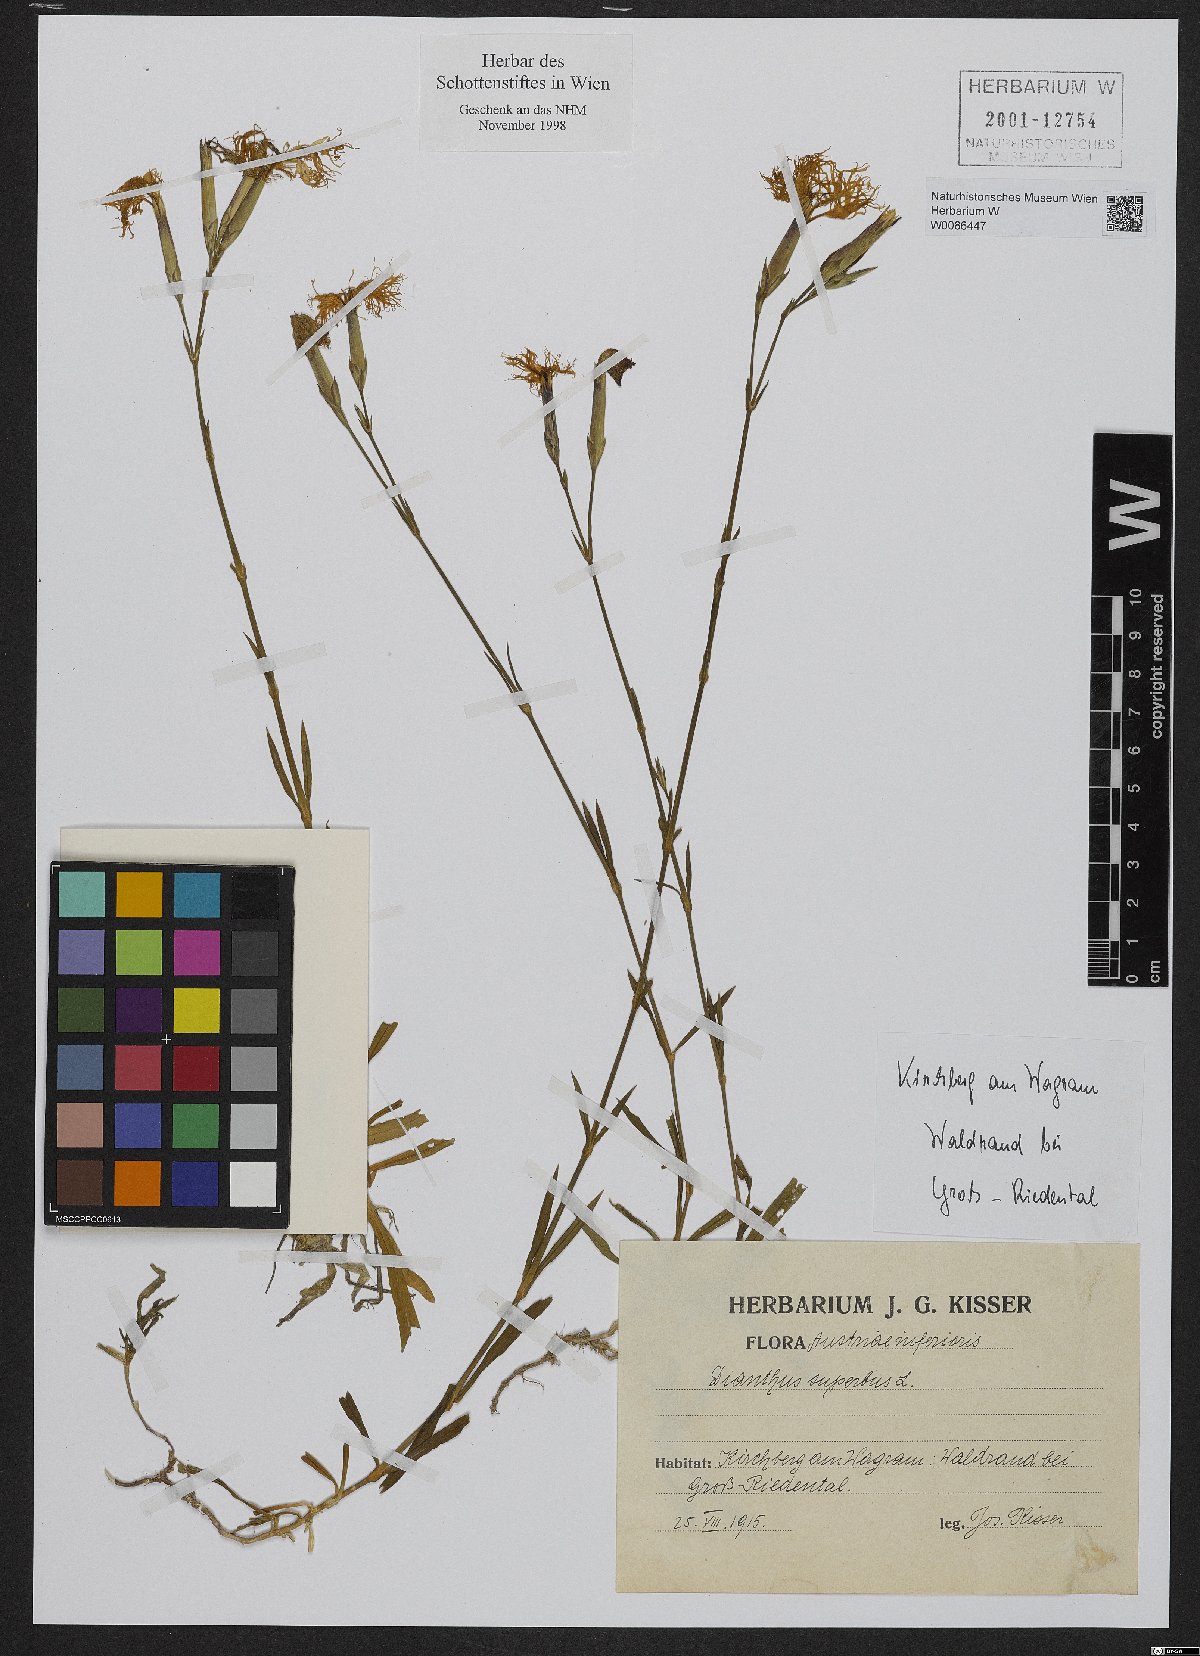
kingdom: Plantae
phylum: Tracheophyta
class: Magnoliopsida
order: Caryophyllales
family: Caryophyllaceae
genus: Dianthus
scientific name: Dianthus superbus
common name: Fringed pink
